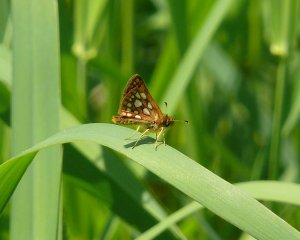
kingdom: Animalia
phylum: Arthropoda
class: Insecta
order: Lepidoptera
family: Hesperiidae
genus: Carterocephalus
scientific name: Carterocephalus palaemon
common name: Chequered Skipper
